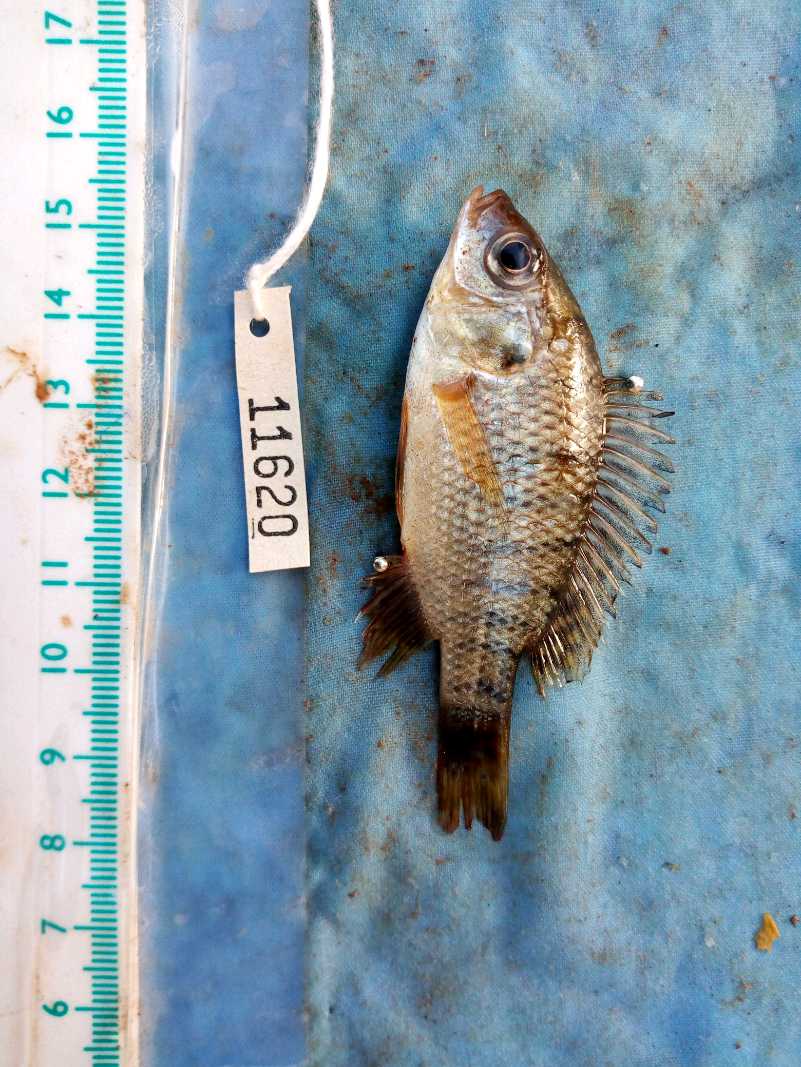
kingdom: Animalia
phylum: Chordata
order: Perciformes
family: Cichlidae
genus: Oreochromis
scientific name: Oreochromis spilurus
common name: Sabaki tilapia
